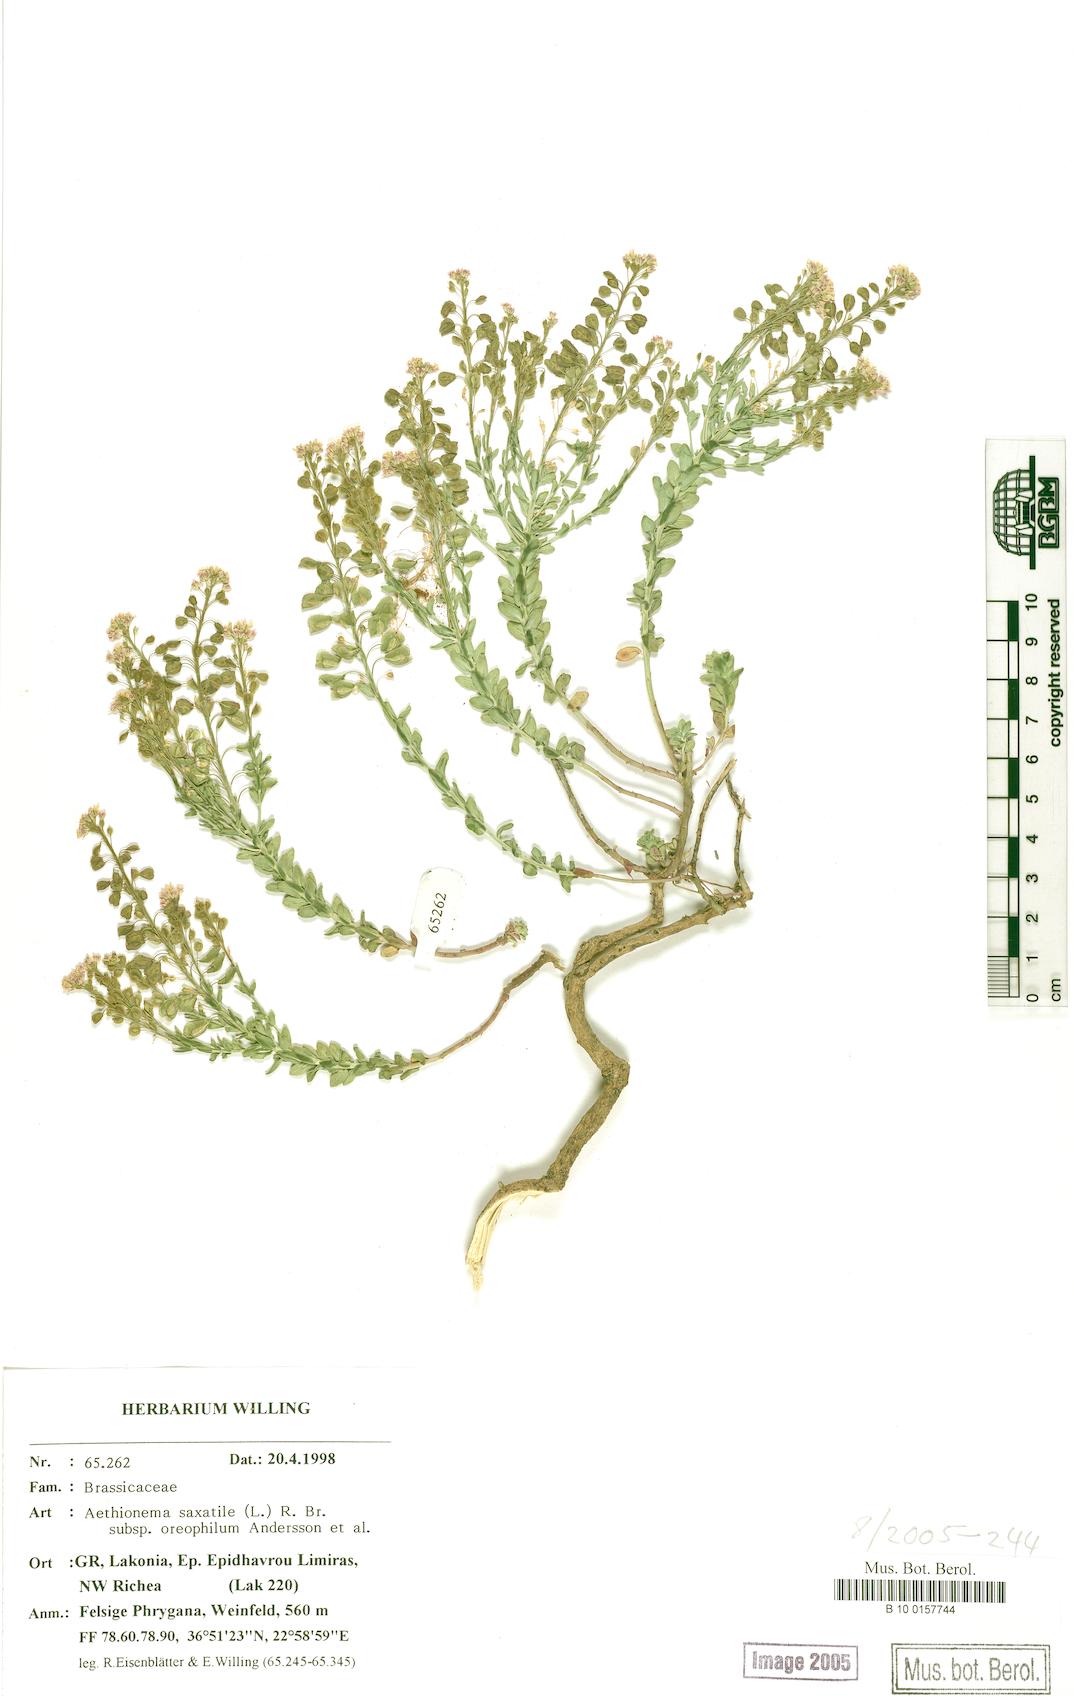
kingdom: Plantae
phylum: Tracheophyta
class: Magnoliopsida
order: Brassicales
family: Brassicaceae
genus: Aethionema
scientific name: Aethionema saxatile
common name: Burnt candytuft
